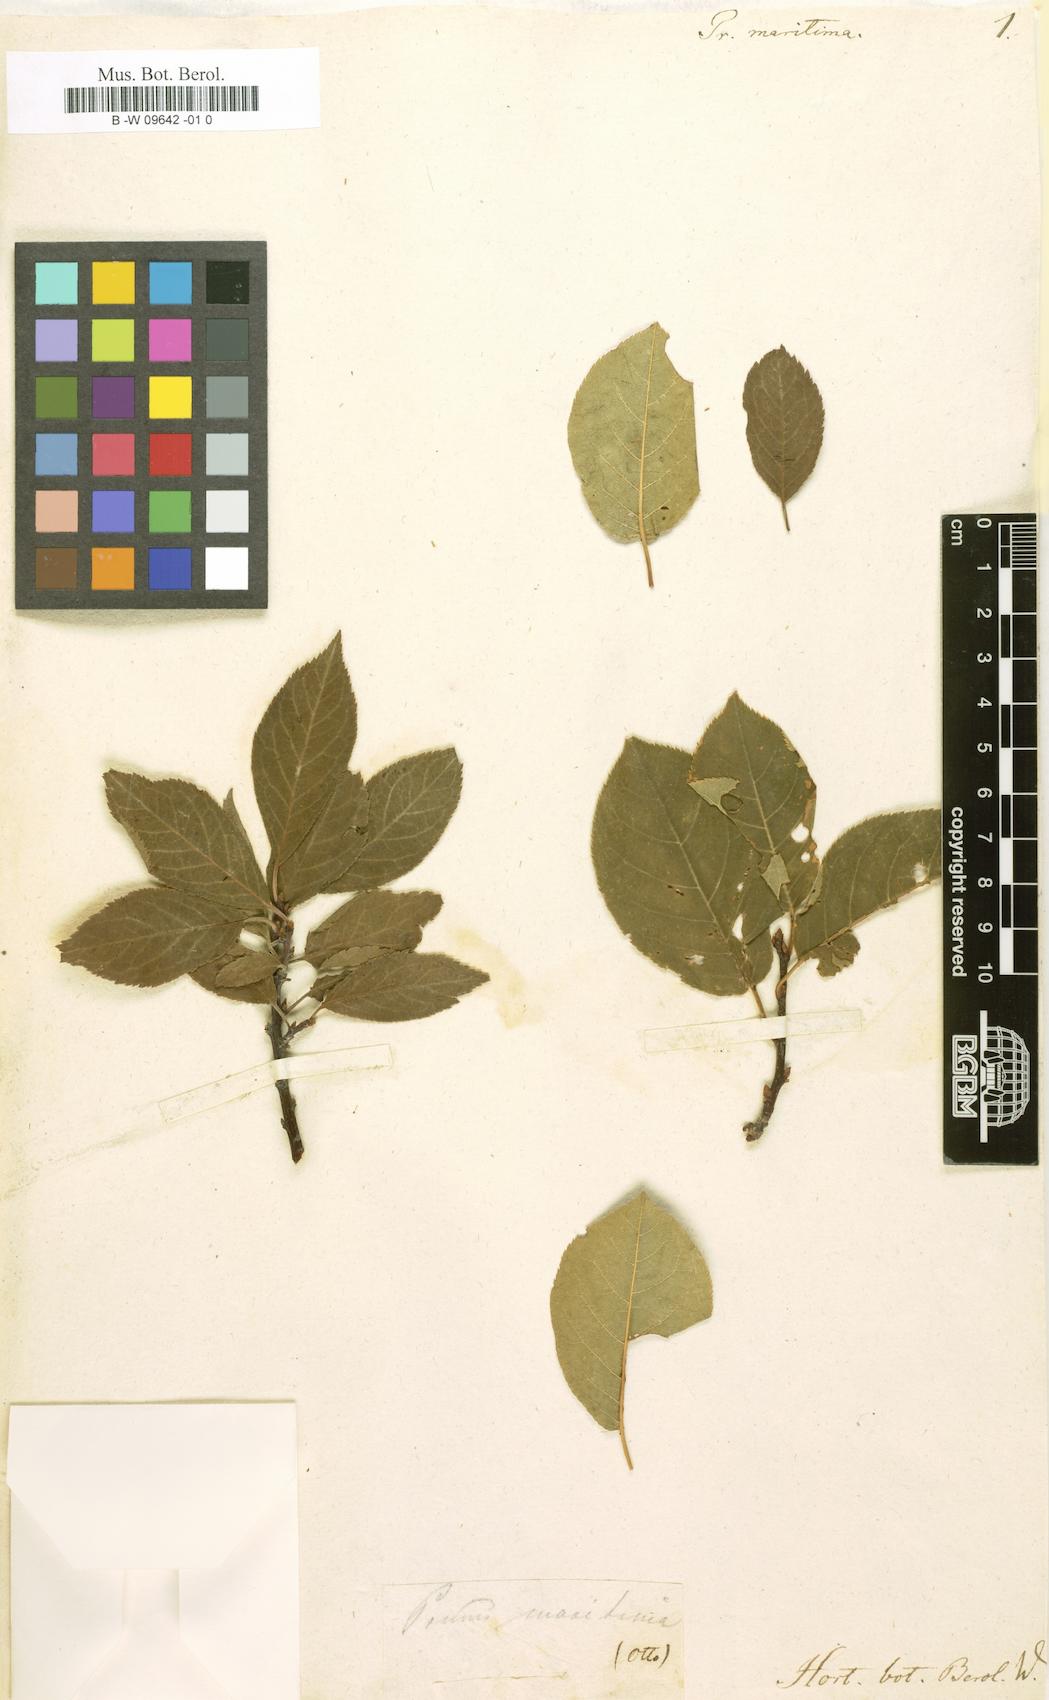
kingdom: Plantae
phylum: Tracheophyta
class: Magnoliopsida
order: Rosales
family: Rosaceae
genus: Prunus
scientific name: Prunus maritima
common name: Beach plum
